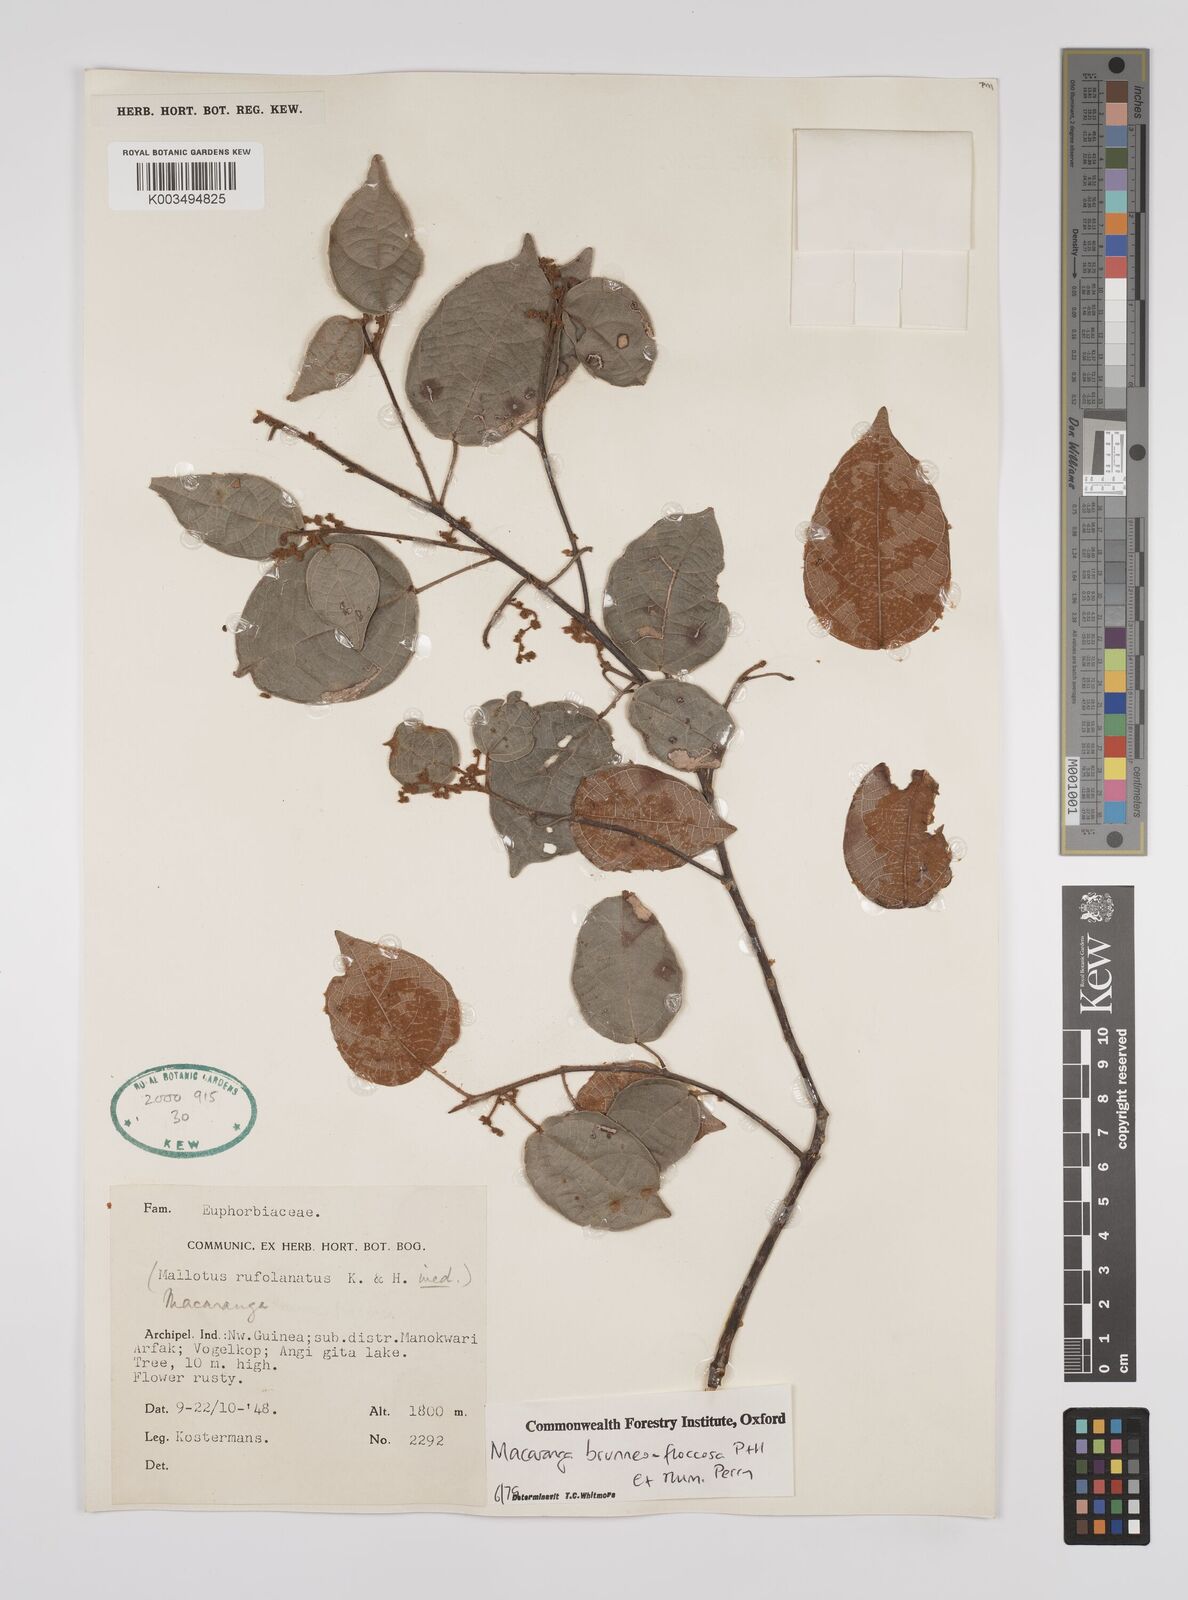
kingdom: Plantae
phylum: Tracheophyta
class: Magnoliopsida
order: Malpighiales
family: Euphorbiaceae
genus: Macaranga
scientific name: Macaranga brunneofloccosa
